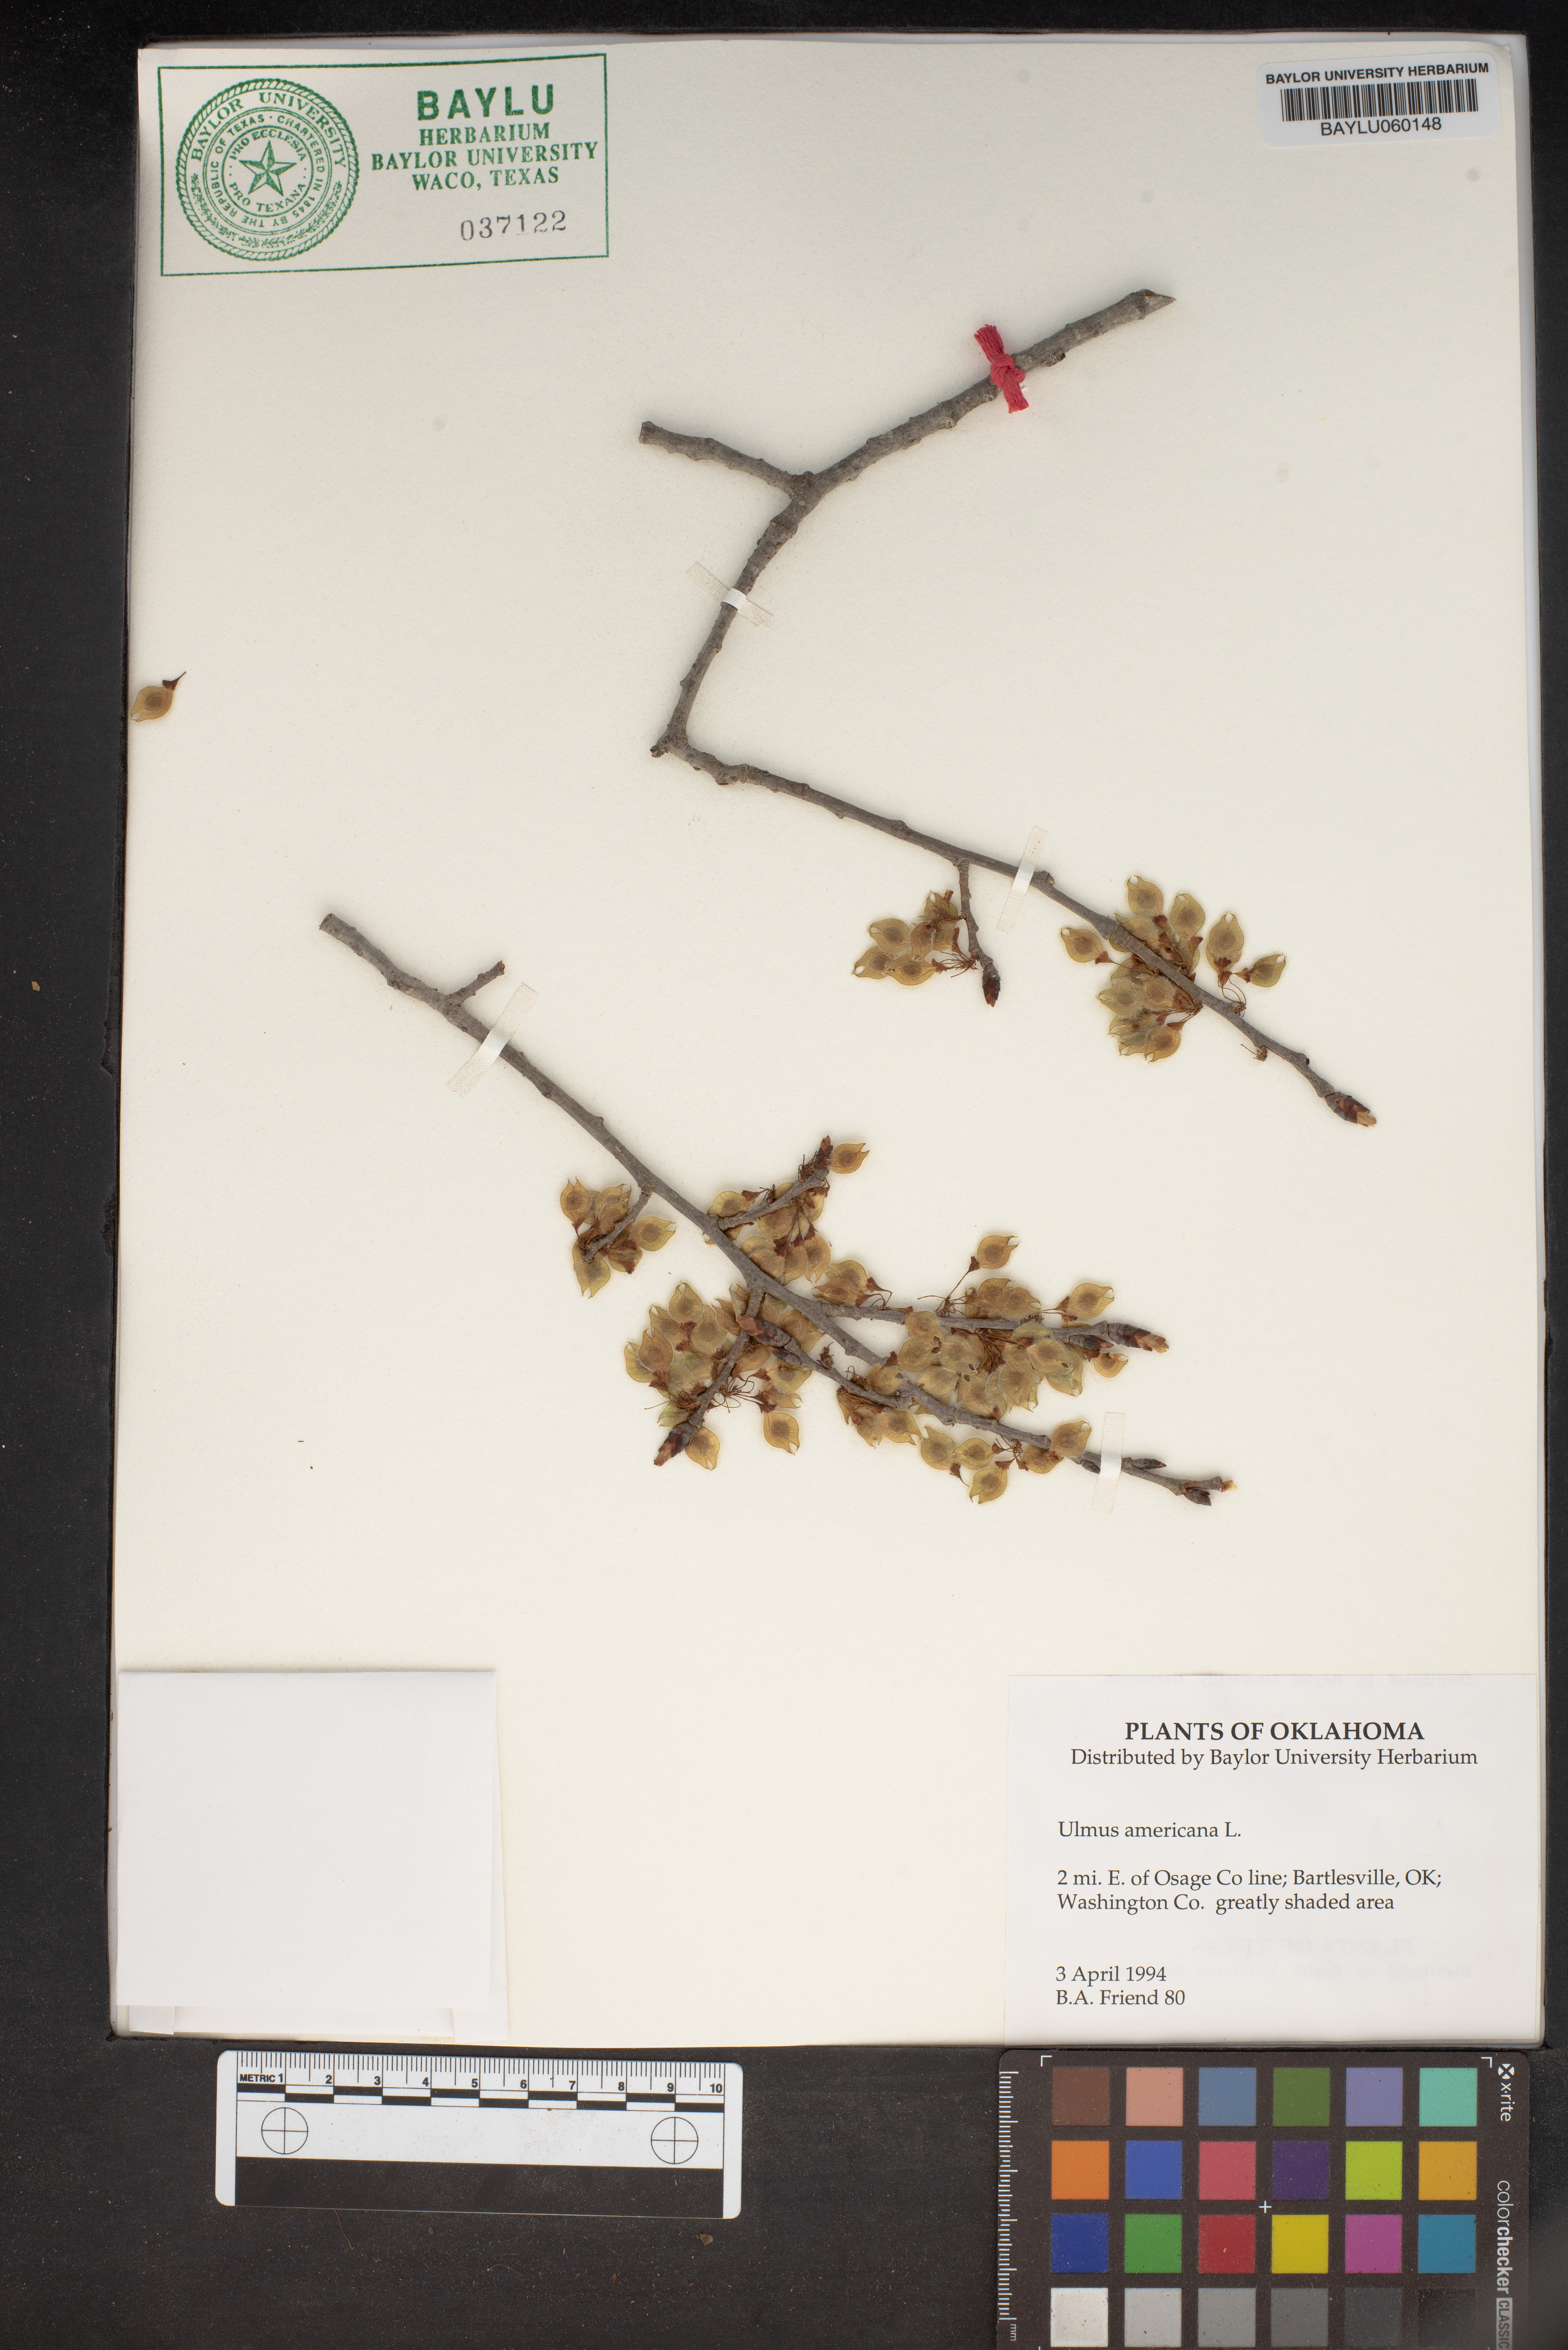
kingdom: Plantae
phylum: Tracheophyta
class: Magnoliopsida
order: Rosales
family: Ulmaceae
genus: Ulmus
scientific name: Ulmus americana
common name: American elm
